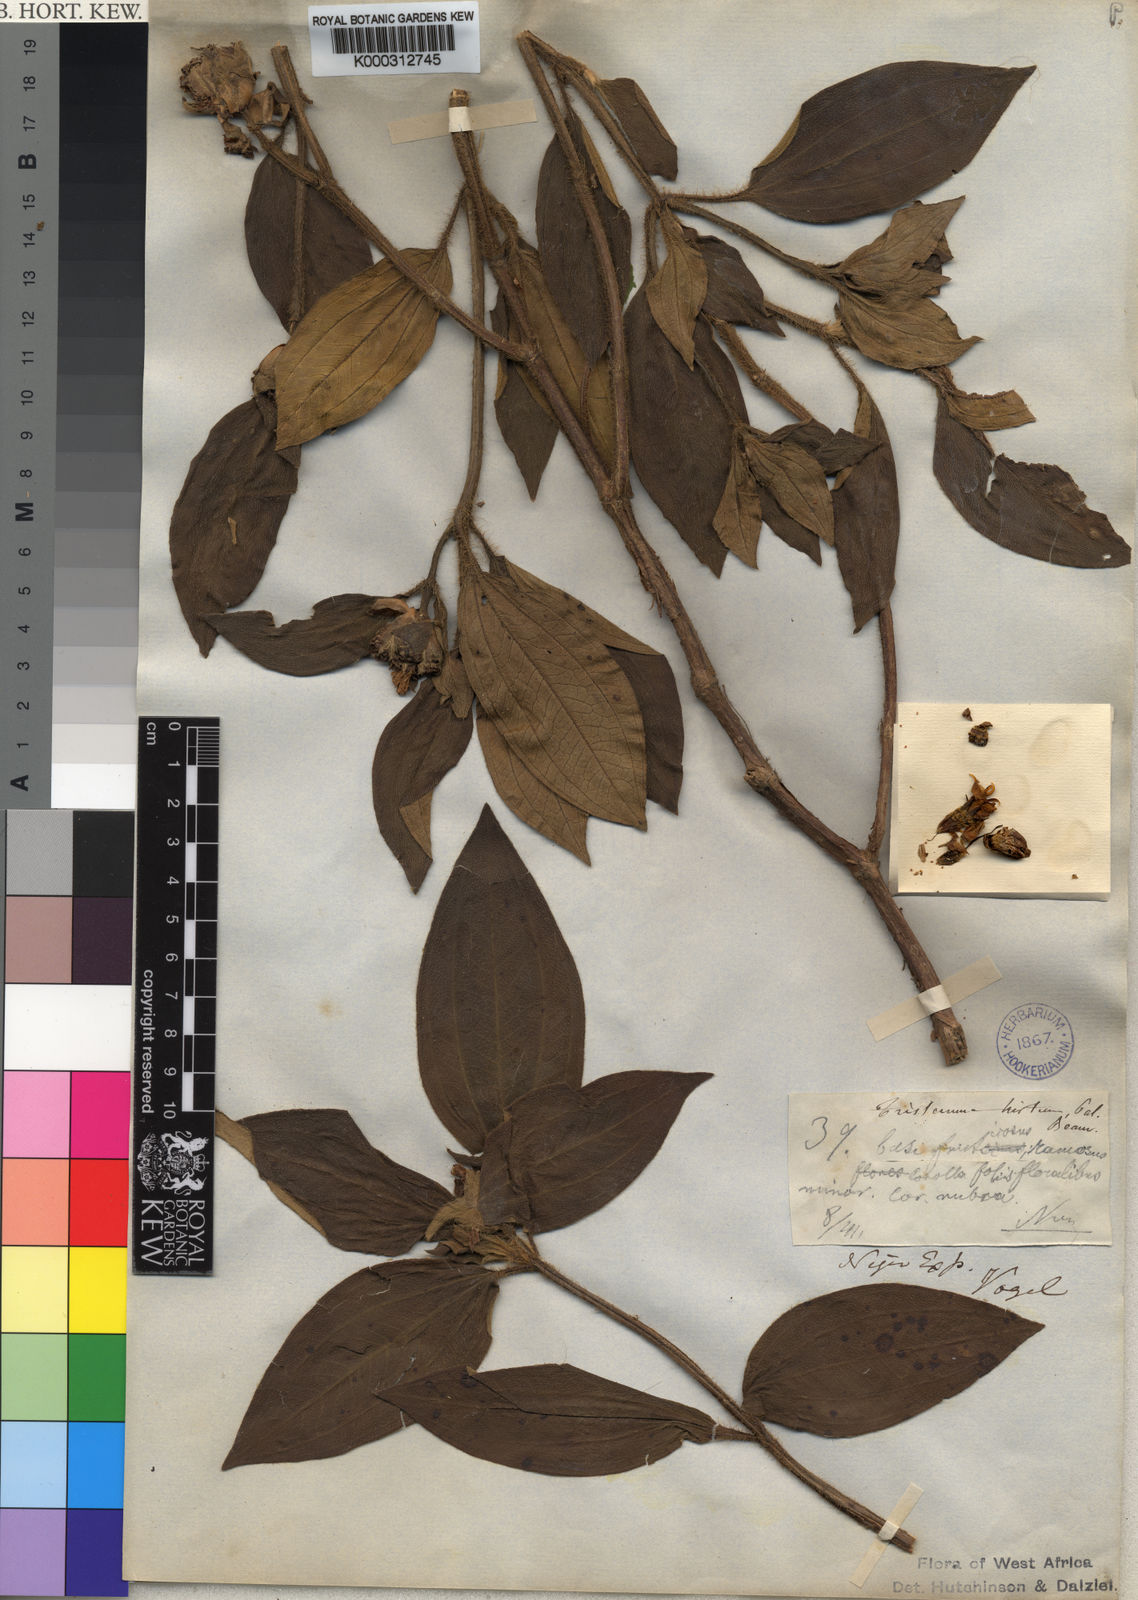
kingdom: Plantae
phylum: Tracheophyta
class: Magnoliopsida
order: Myrtales
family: Melastomataceae
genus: Tristemma
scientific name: Tristemma hirtum
